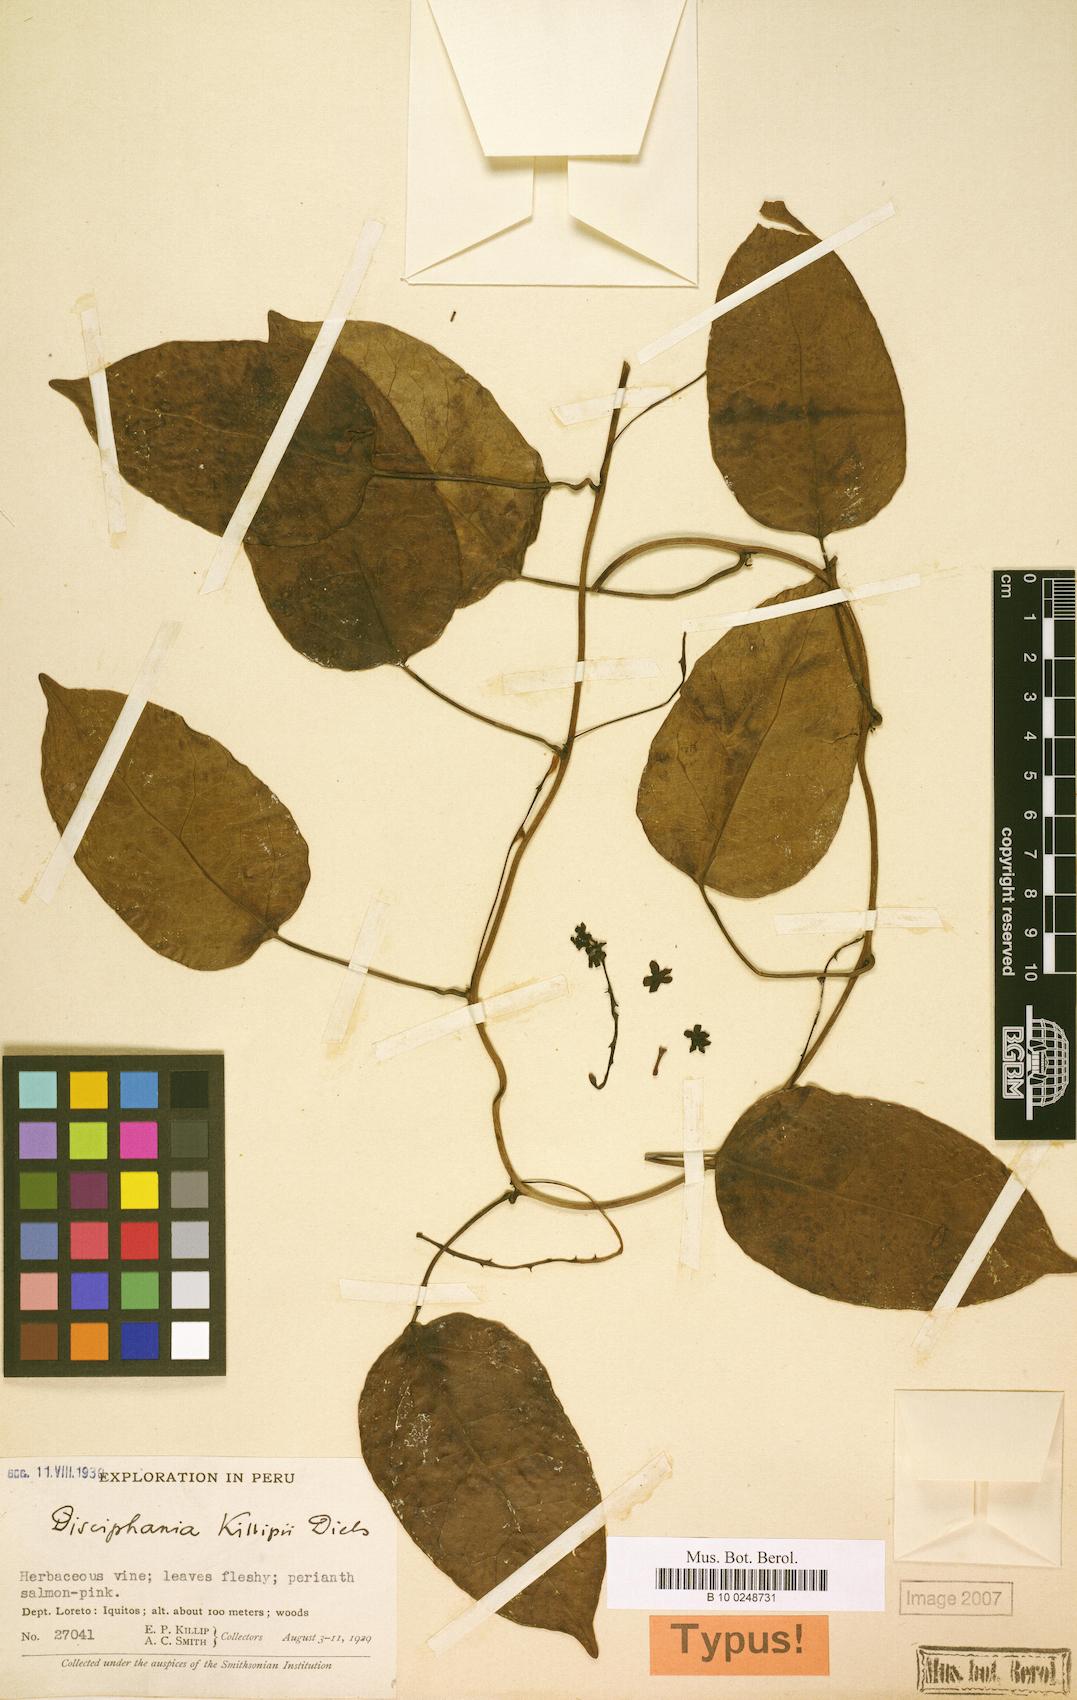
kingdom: Plantae
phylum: Tracheophyta
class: Magnoliopsida
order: Ranunculales
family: Menispermaceae
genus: Disciphania
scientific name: Disciphania killipii
